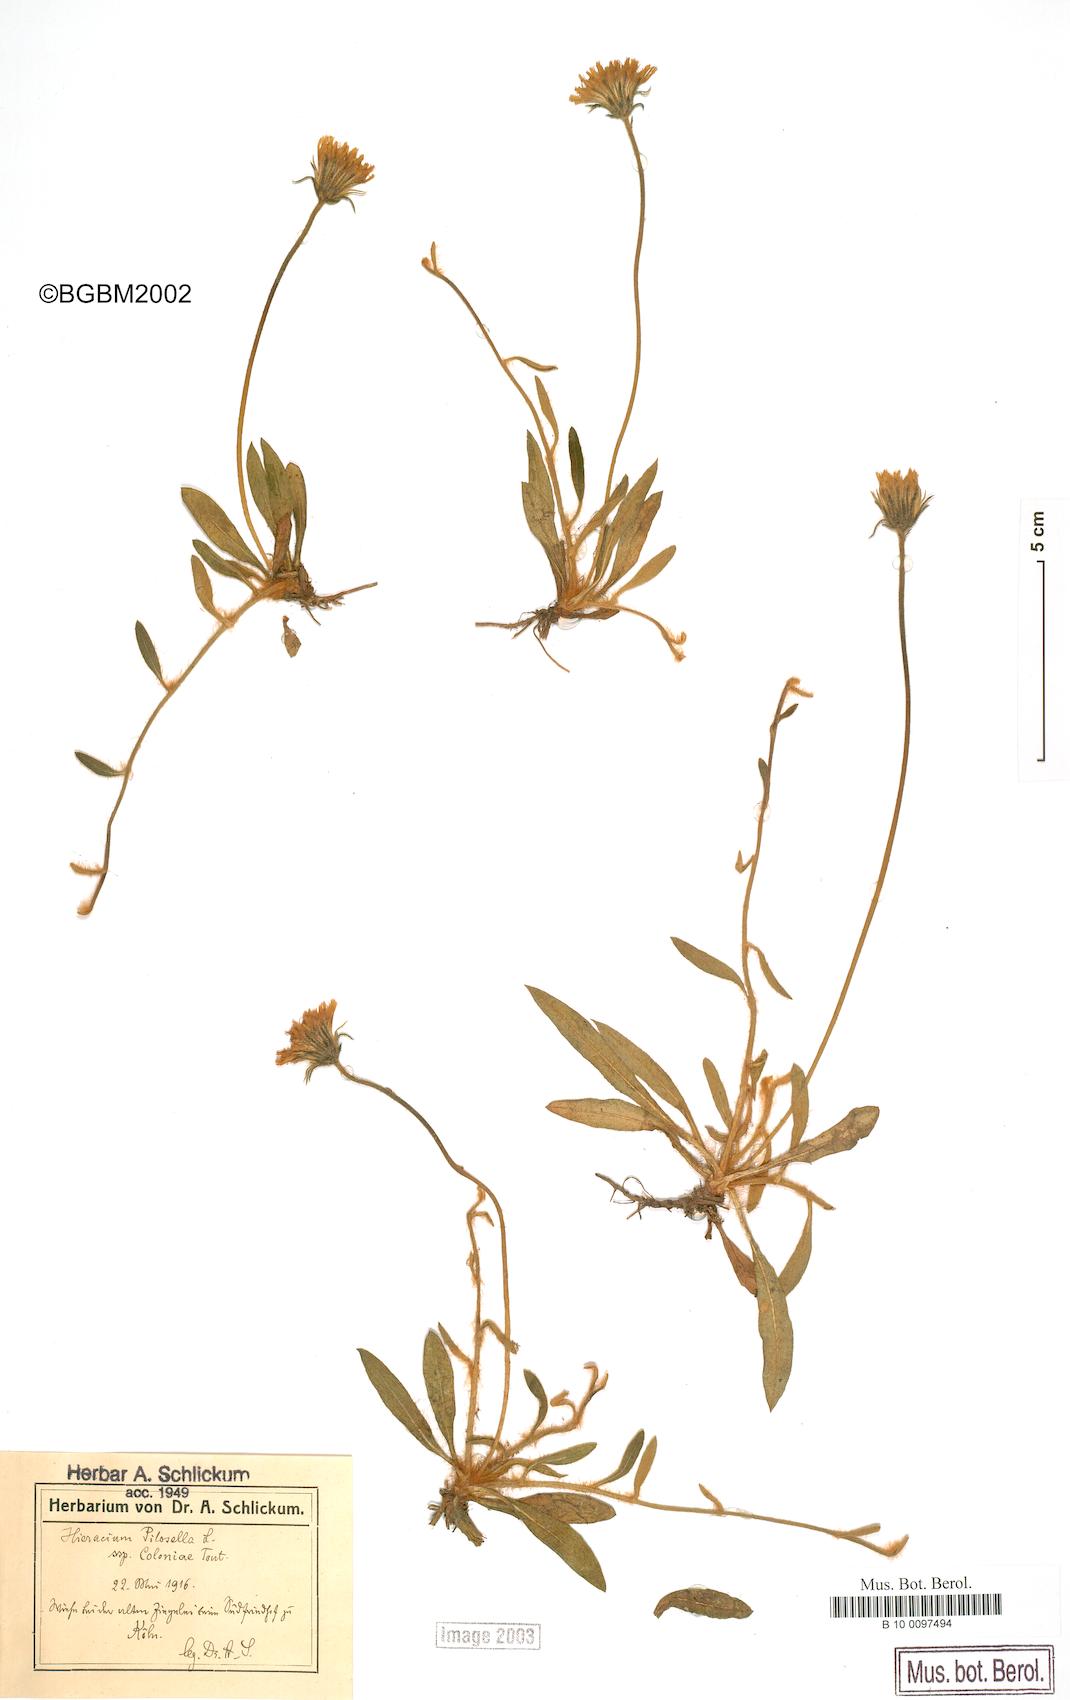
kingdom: Plantae
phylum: Tracheophyta
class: Magnoliopsida
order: Asterales
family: Asteraceae
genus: Pilosella
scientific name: Pilosella officinarum
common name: Mouse-ear hawkweed
